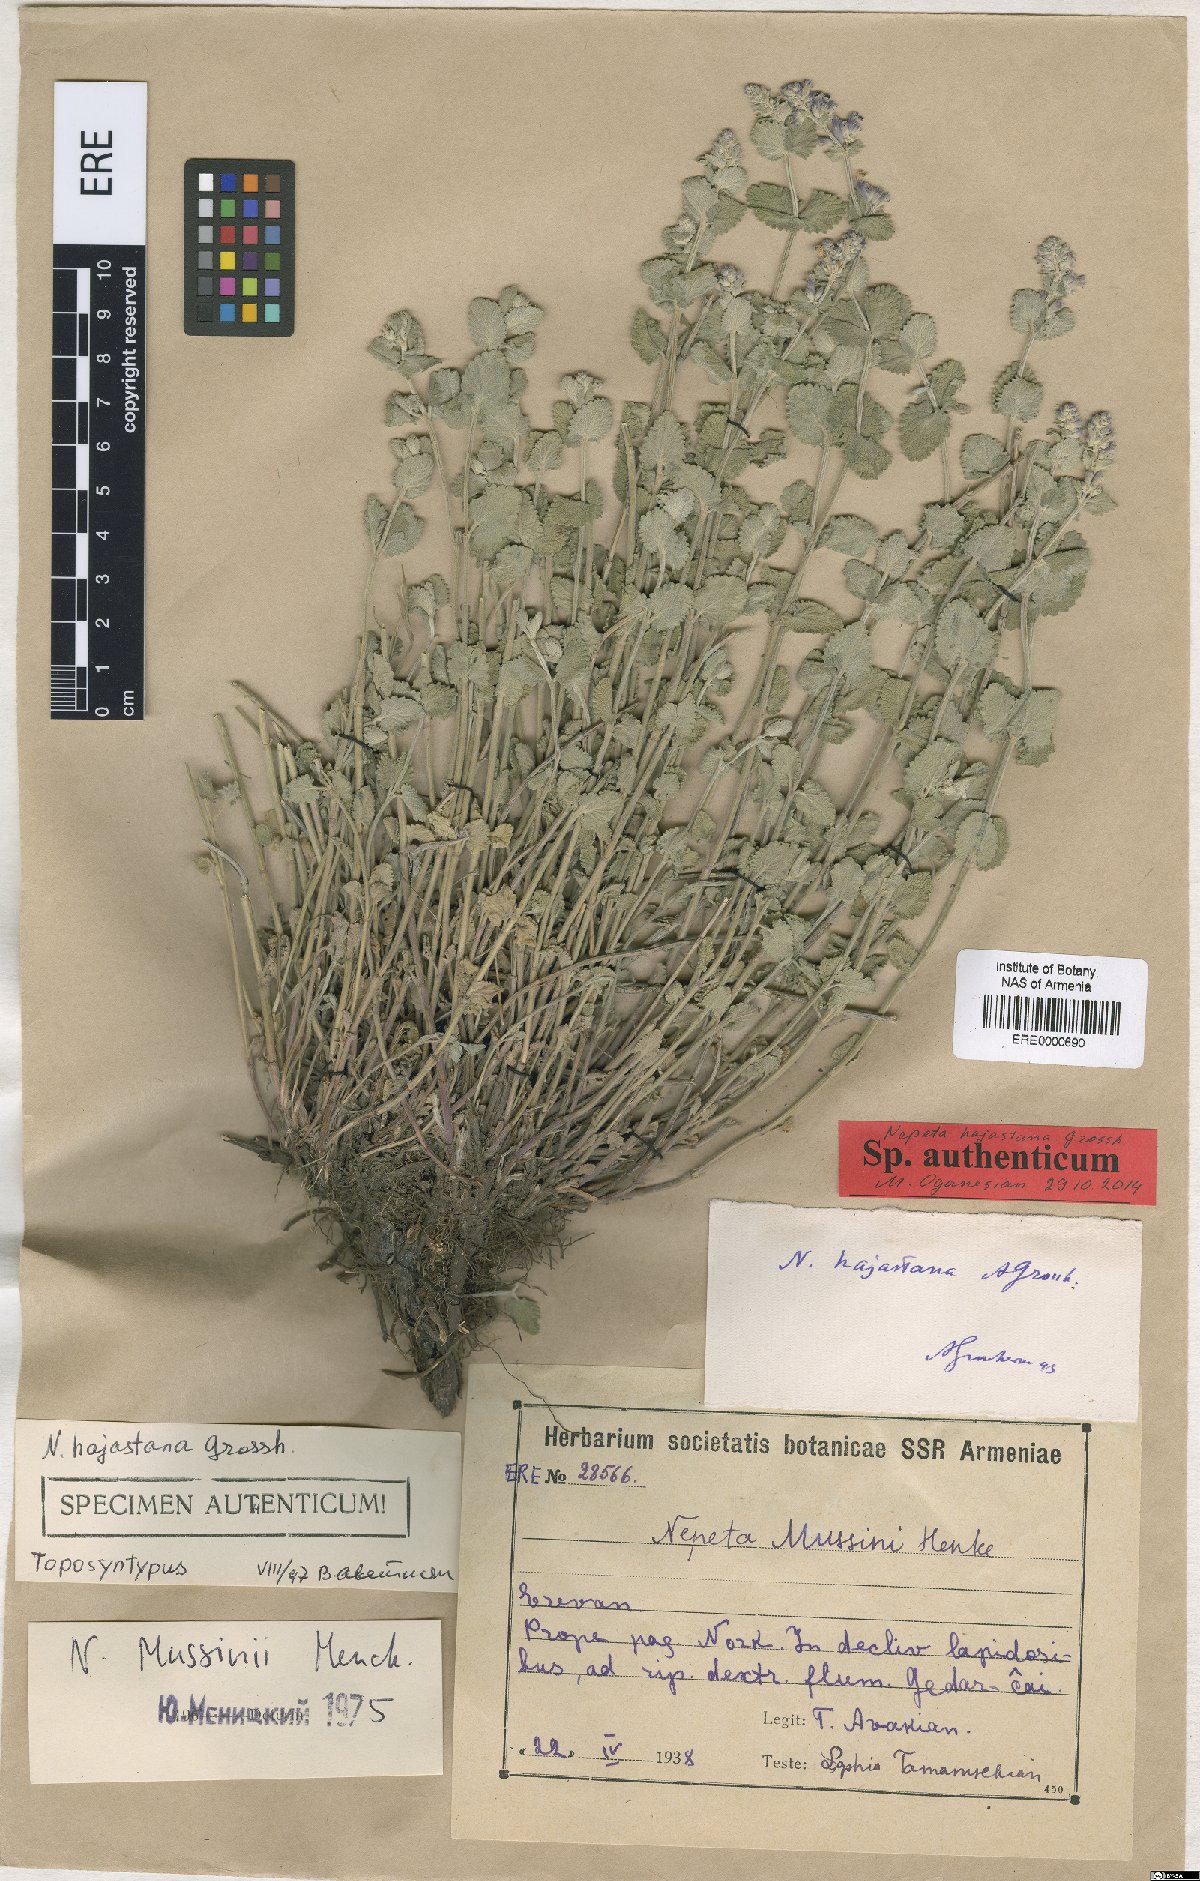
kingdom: Plantae
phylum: Tracheophyta
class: Magnoliopsida
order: Lamiales
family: Lamiaceae
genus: Nepeta
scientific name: Nepeta racemosa
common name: Raceme catnip
